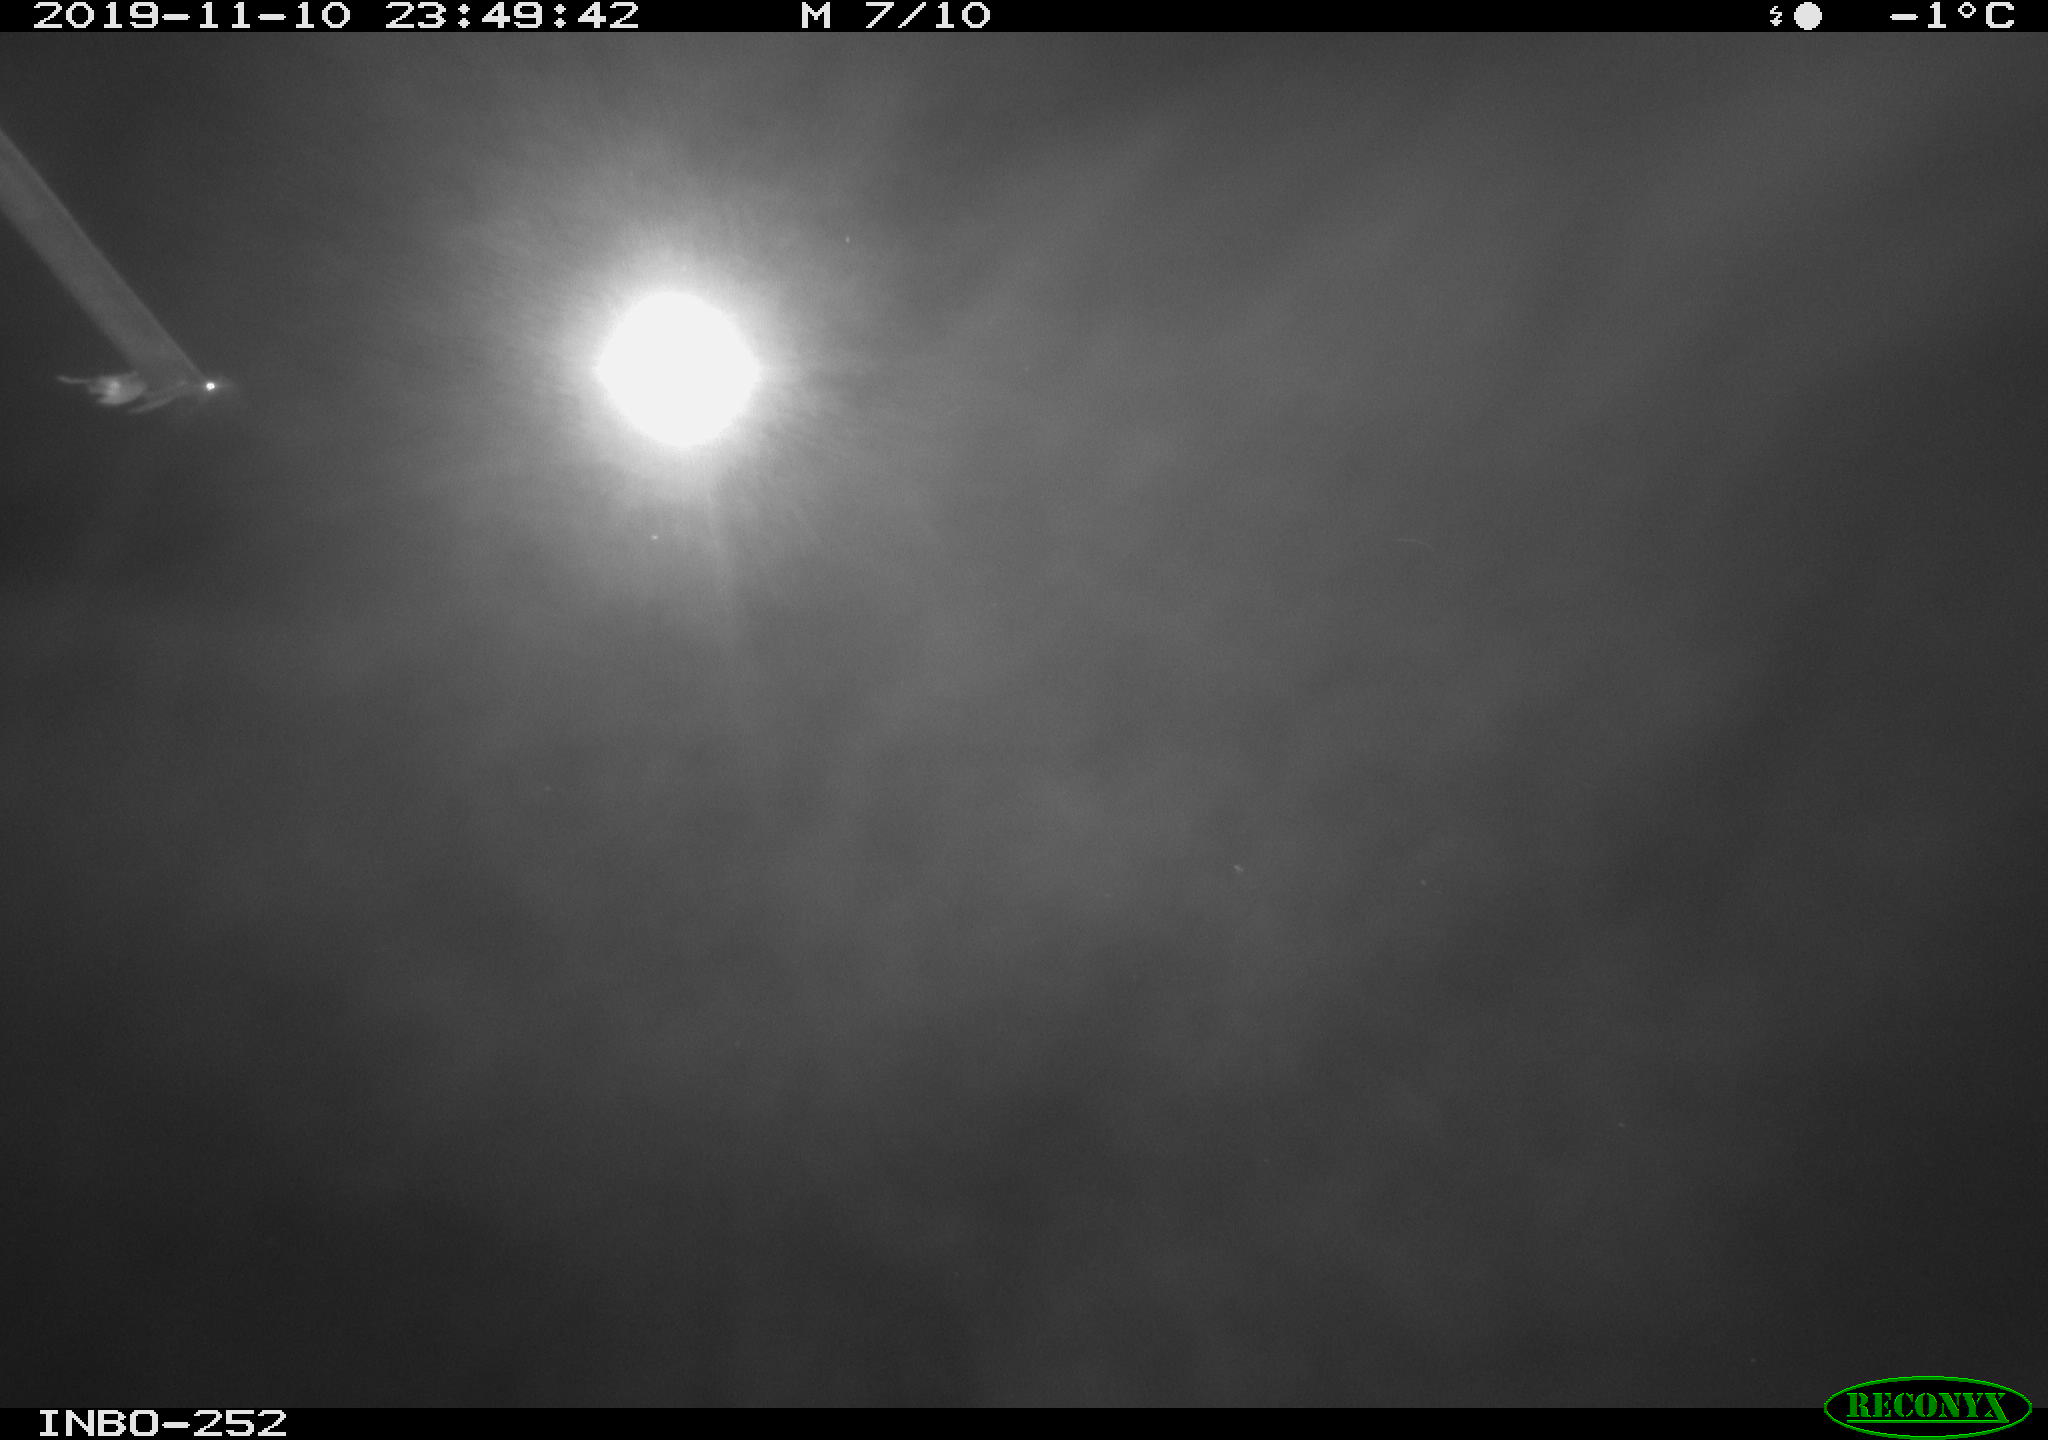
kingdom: Animalia
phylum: Chordata
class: Aves
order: Anseriformes
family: Anatidae
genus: Anas
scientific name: Anas platyrhynchos
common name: Mallard
